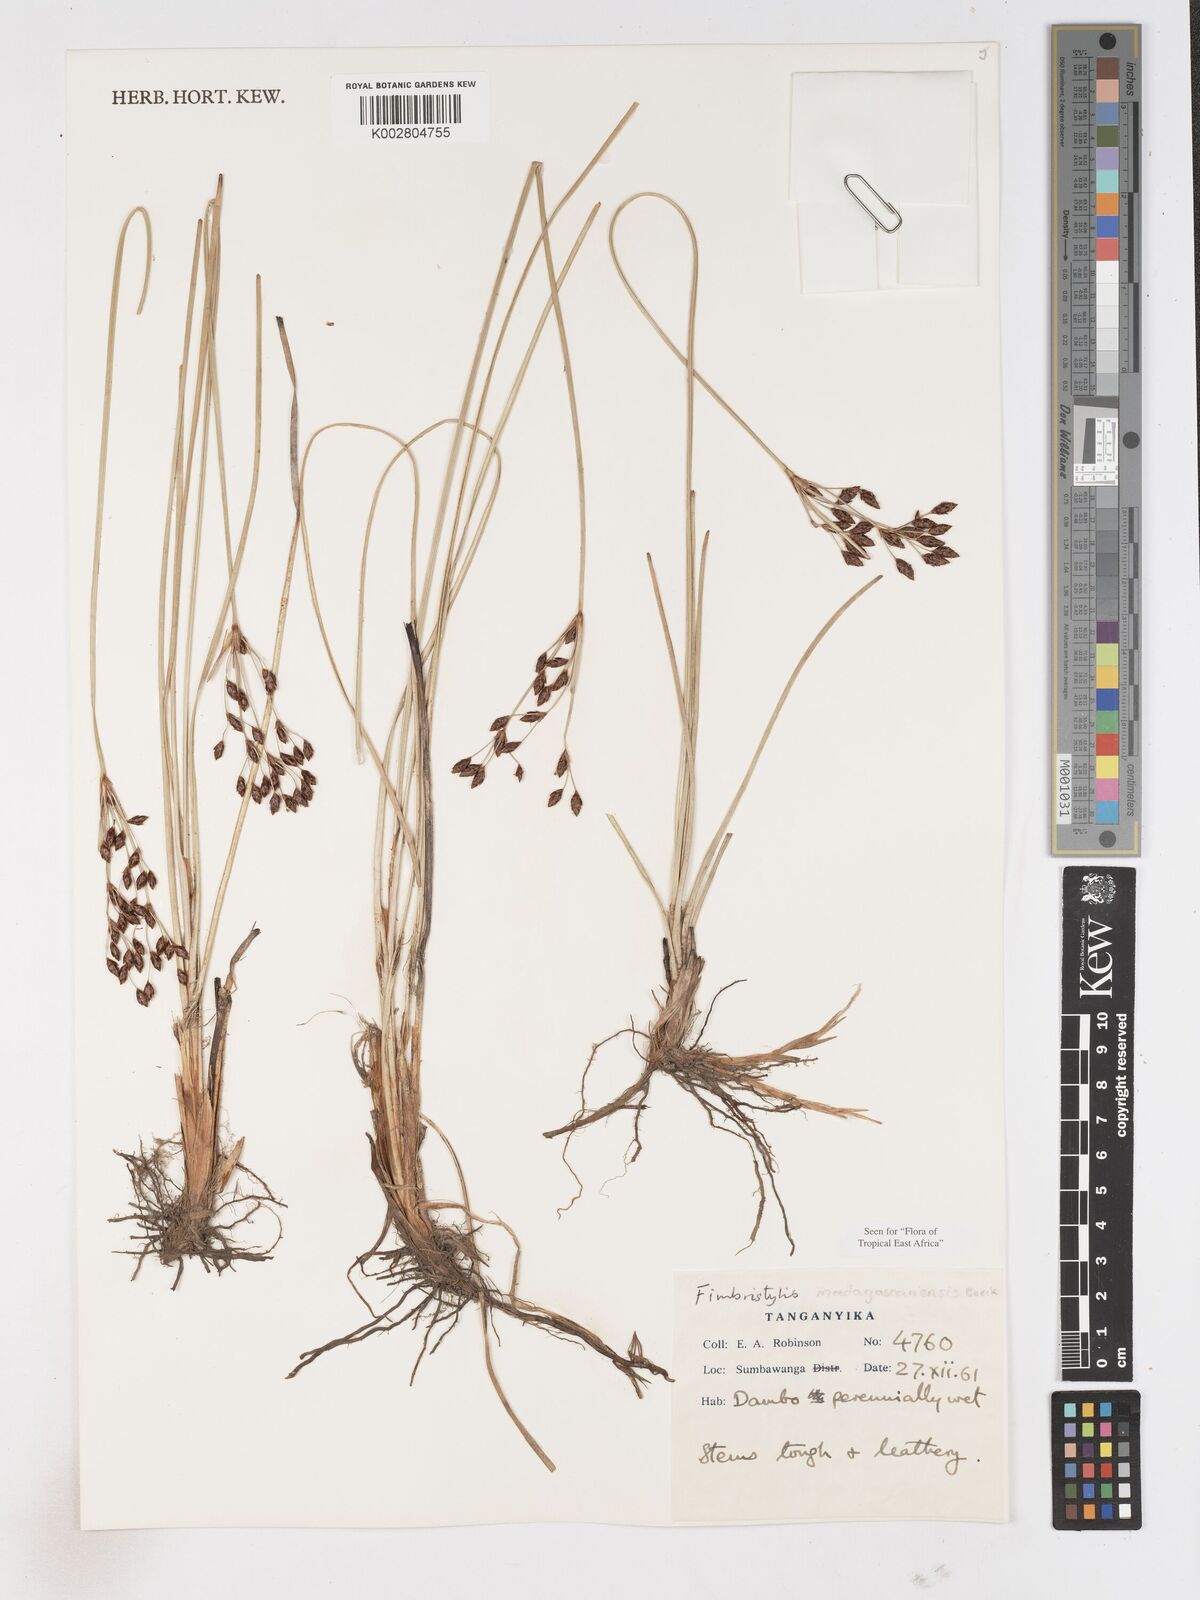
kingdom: Plantae
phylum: Tracheophyta
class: Liliopsida
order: Poales
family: Cyperaceae
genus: Fimbristylis
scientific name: Fimbristylis madagascariensis
